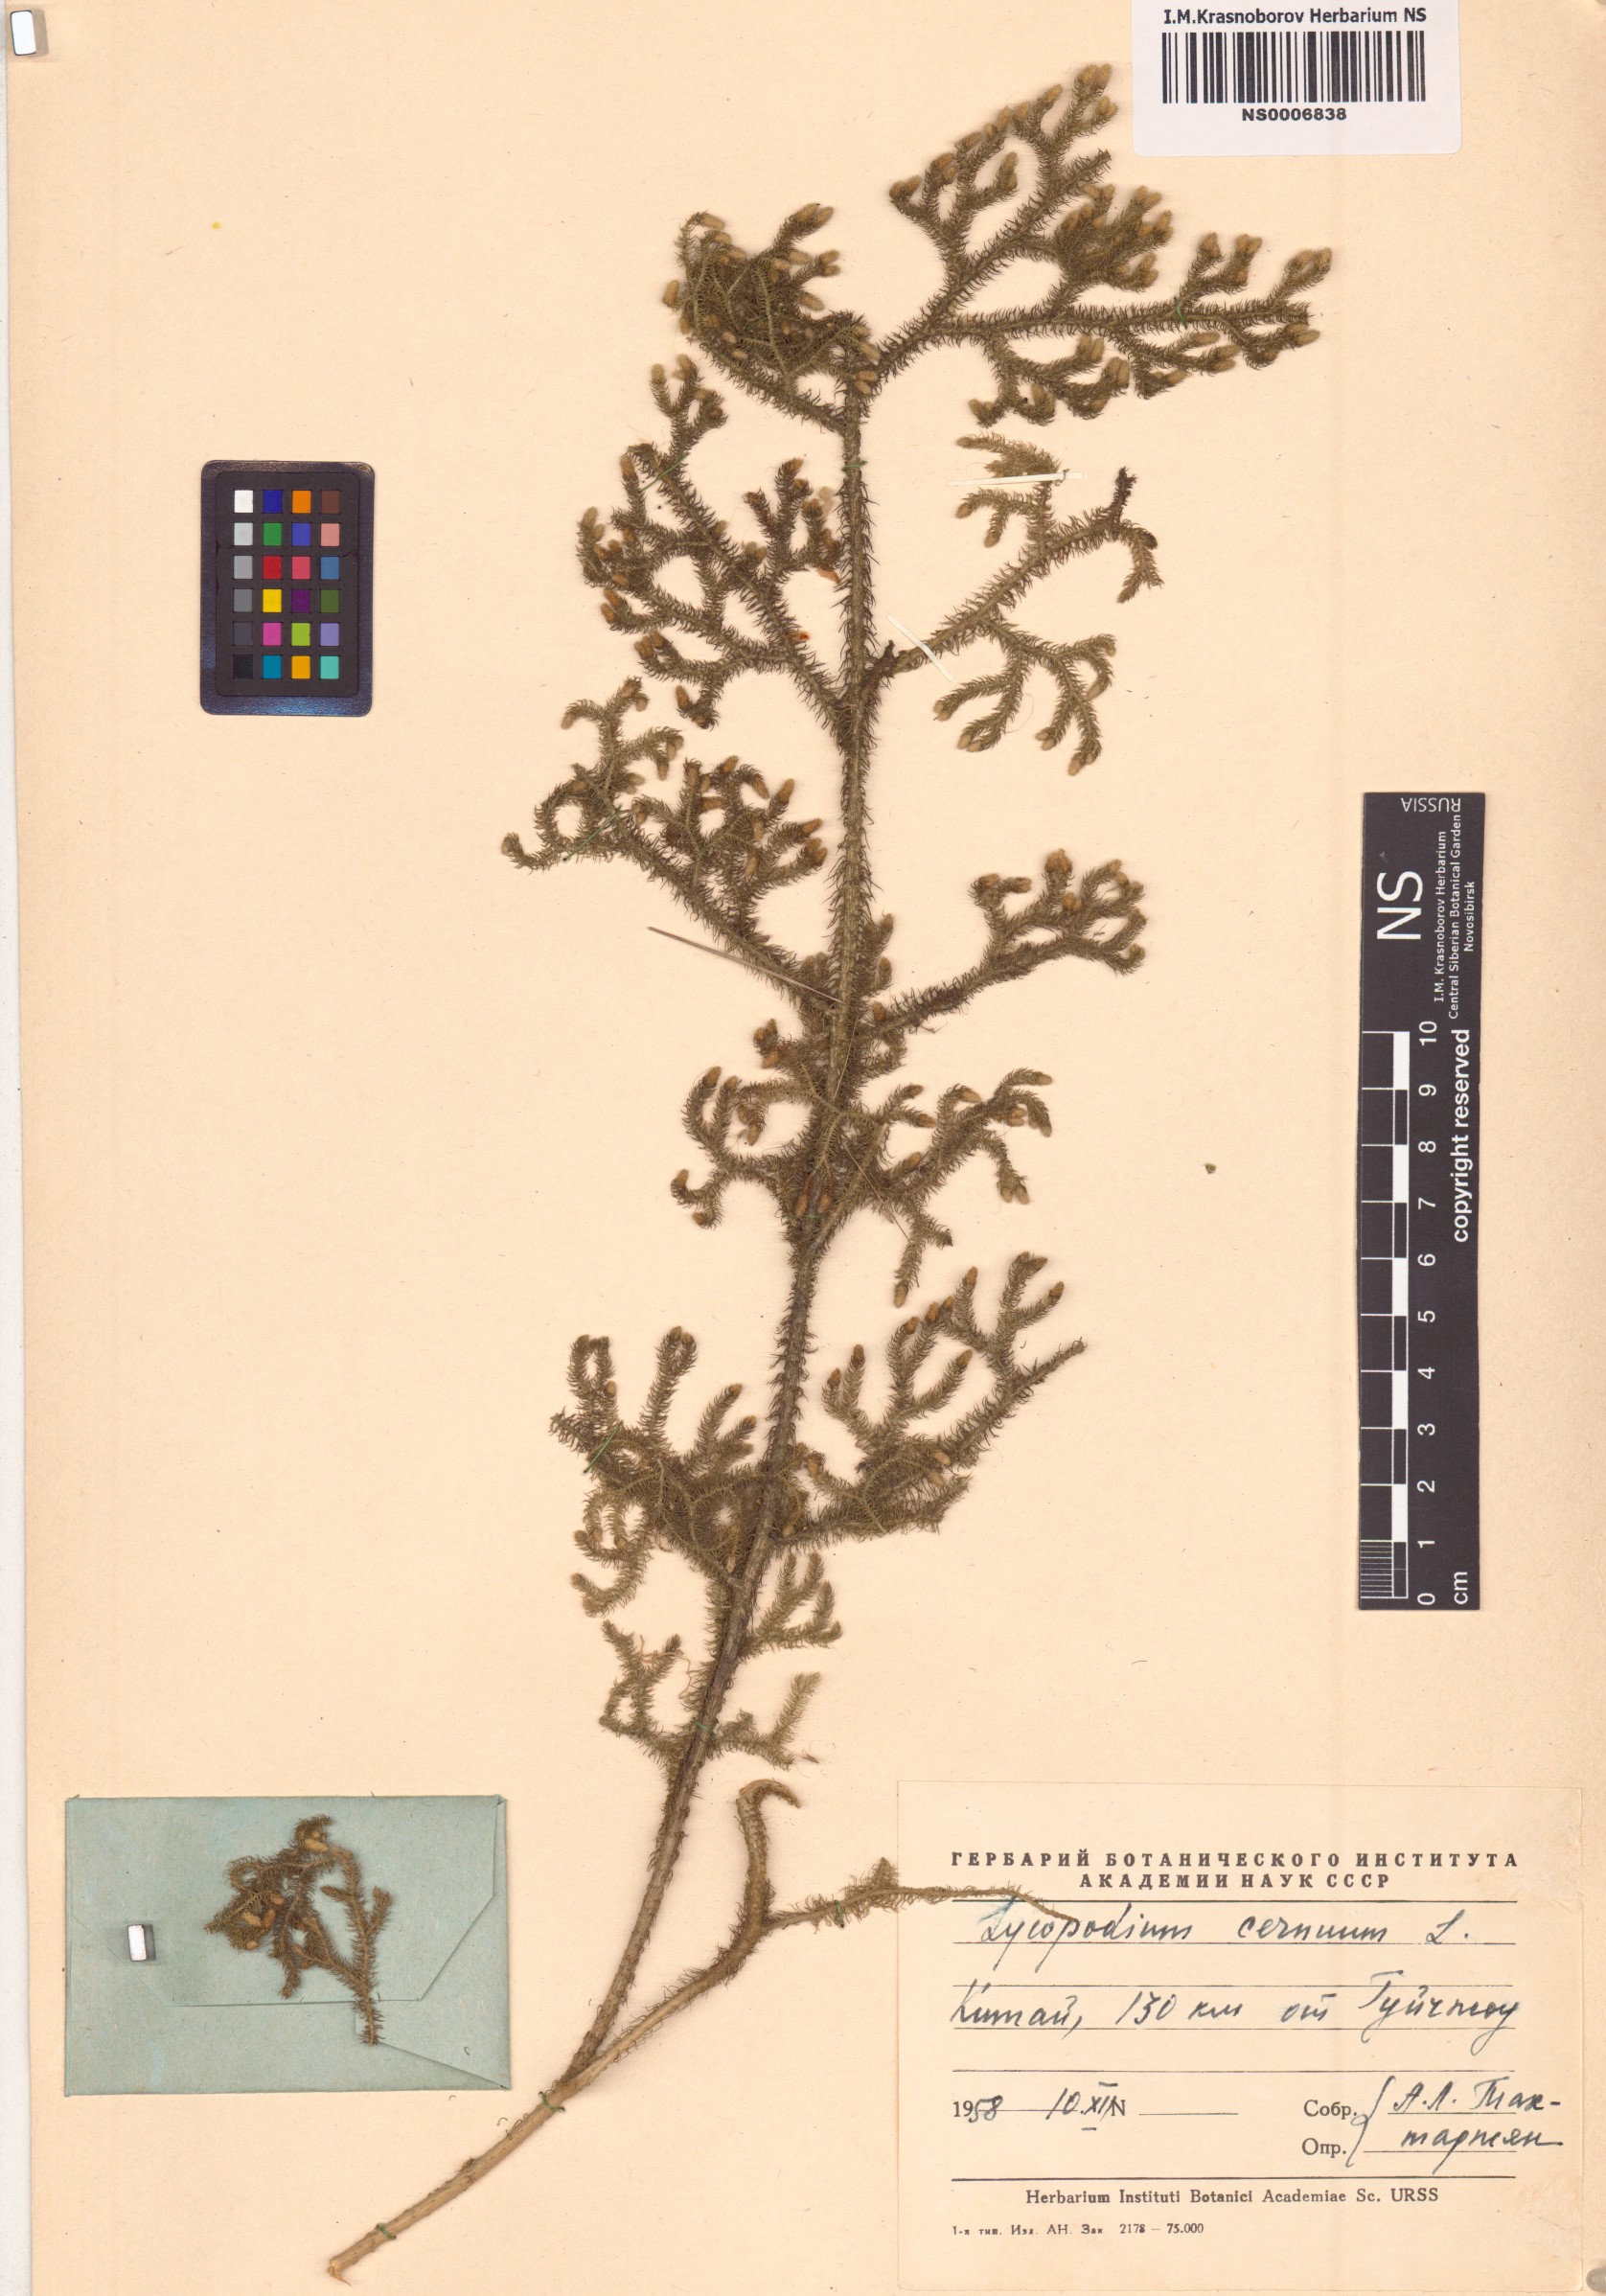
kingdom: Plantae
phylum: Tracheophyta
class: Lycopodiopsida
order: Lycopodiales
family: Lycopodiaceae
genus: Palhinhaea
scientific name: Palhinhaea cernua
